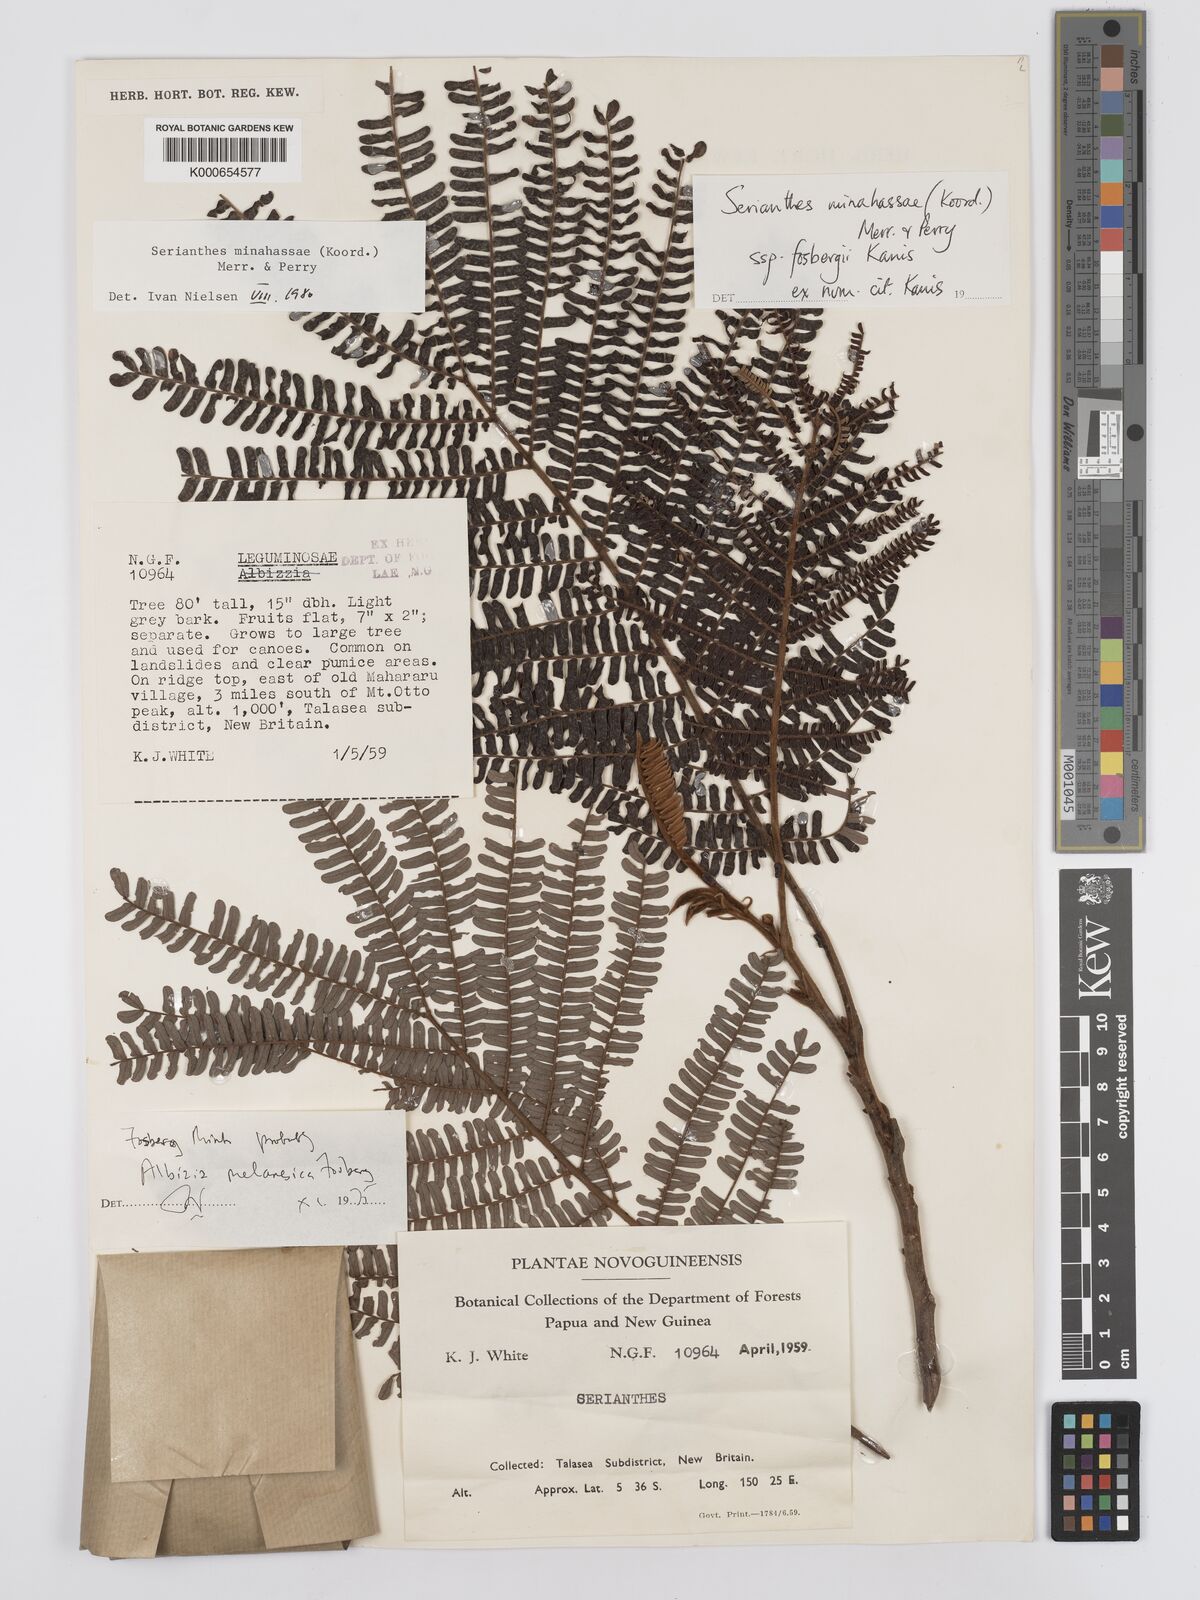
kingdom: Plantae
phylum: Tracheophyta
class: Magnoliopsida
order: Fabales
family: Fabaceae
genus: Serianthes
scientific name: Serianthes minahassae
